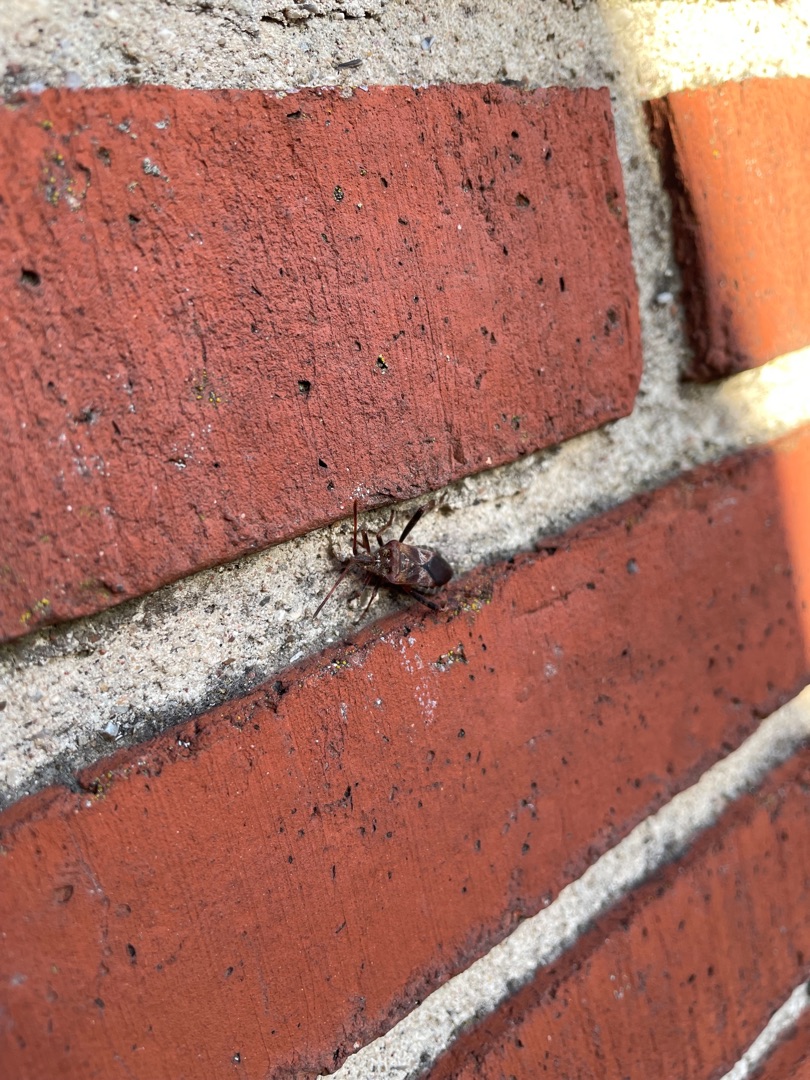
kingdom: Animalia
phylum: Arthropoda
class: Insecta
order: Hemiptera
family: Coreidae
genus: Leptoglossus
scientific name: Leptoglossus occidentalis
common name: Amerikansk fyrretæge
